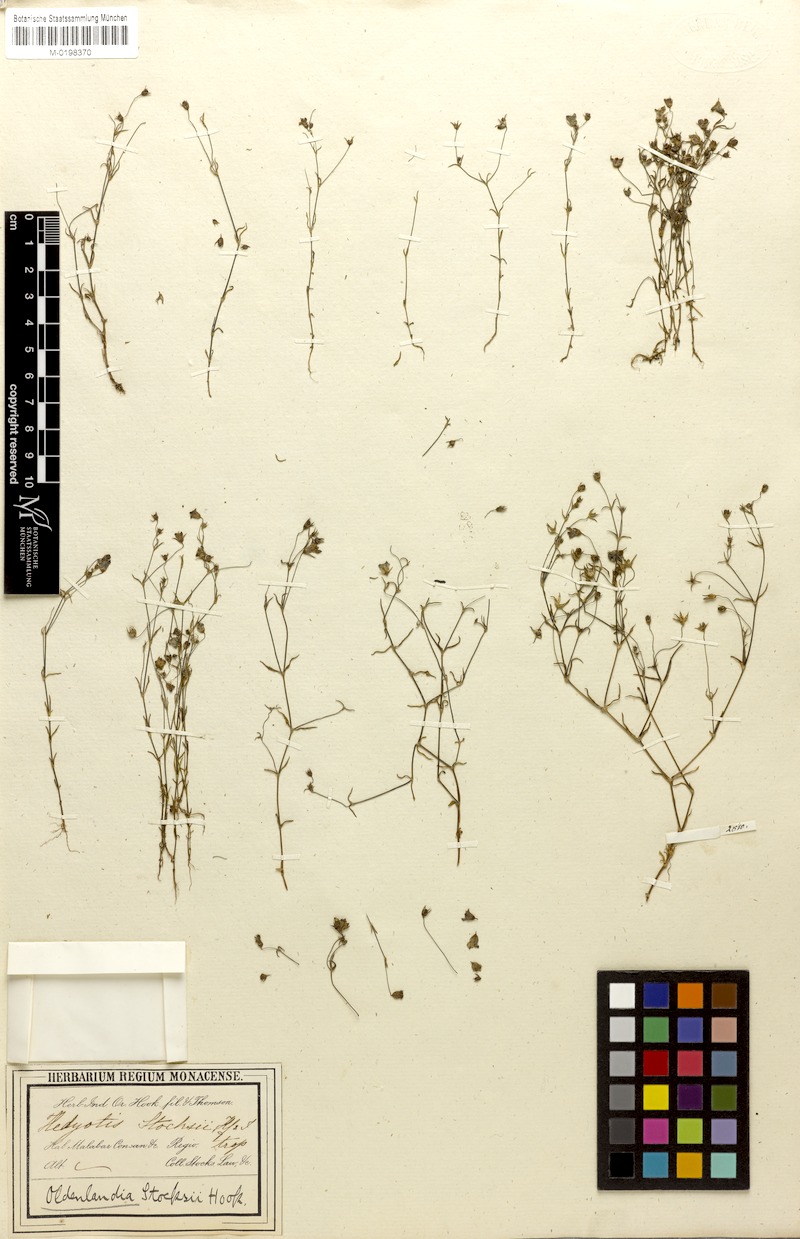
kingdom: Plantae
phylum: Tracheophyta
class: Magnoliopsida
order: Gentianales
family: Rubiaceae
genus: Oldenlandia
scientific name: Oldenlandia stocksii
